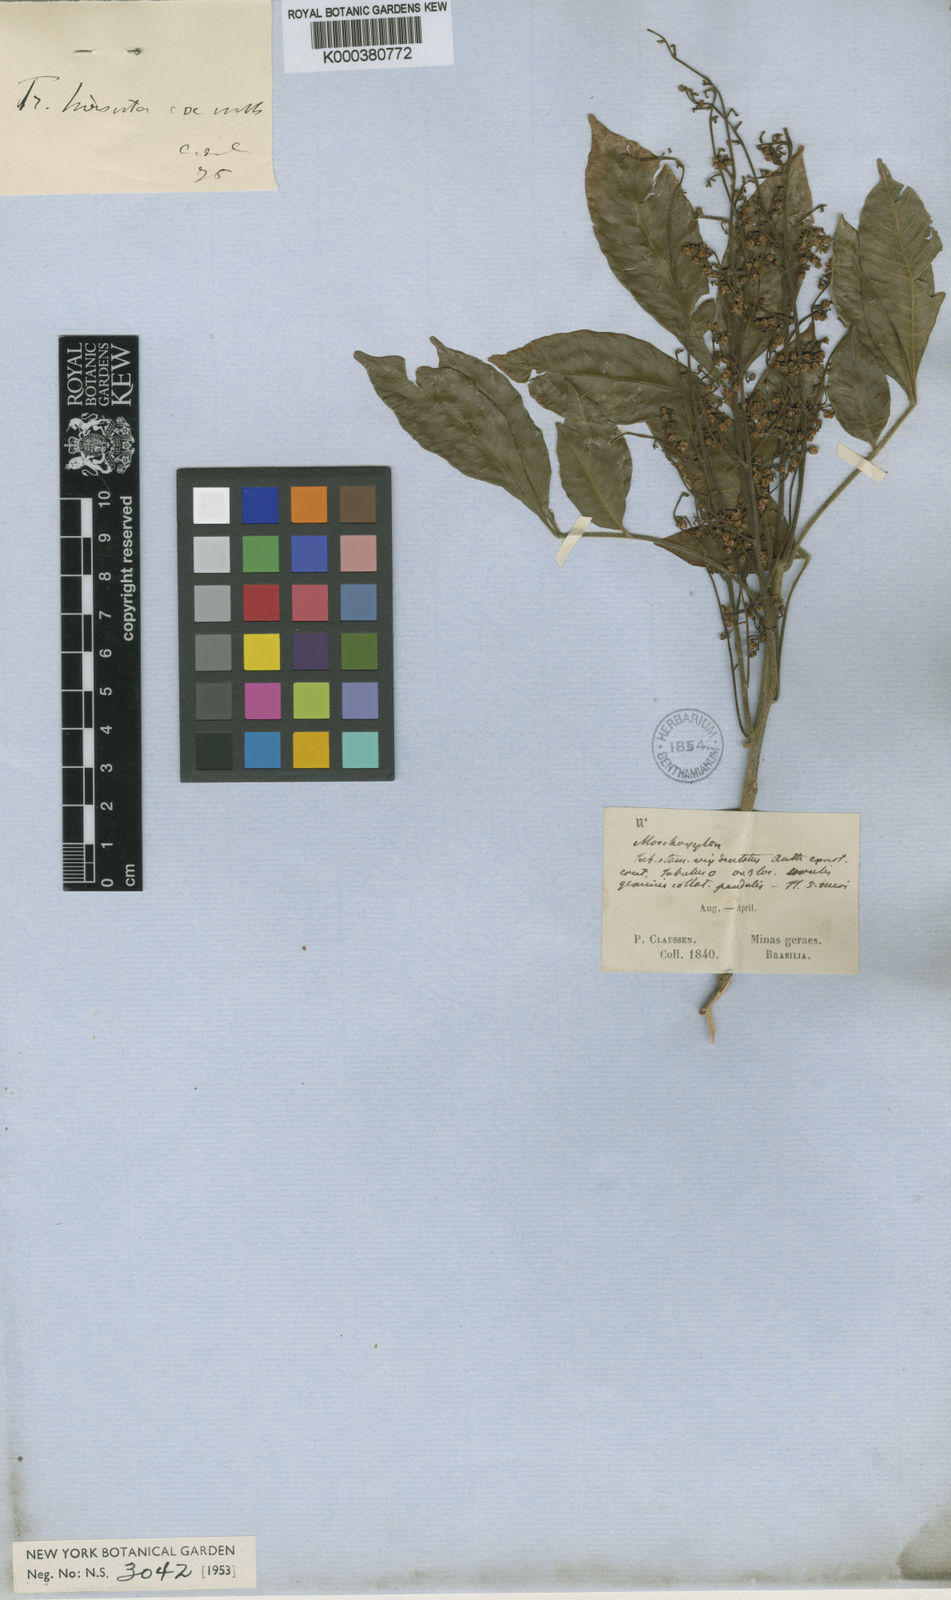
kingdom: Plantae
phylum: Tracheophyta
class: Magnoliopsida
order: Sapindales
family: Meliaceae
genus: Trichilia
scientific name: Trichilia elegans
